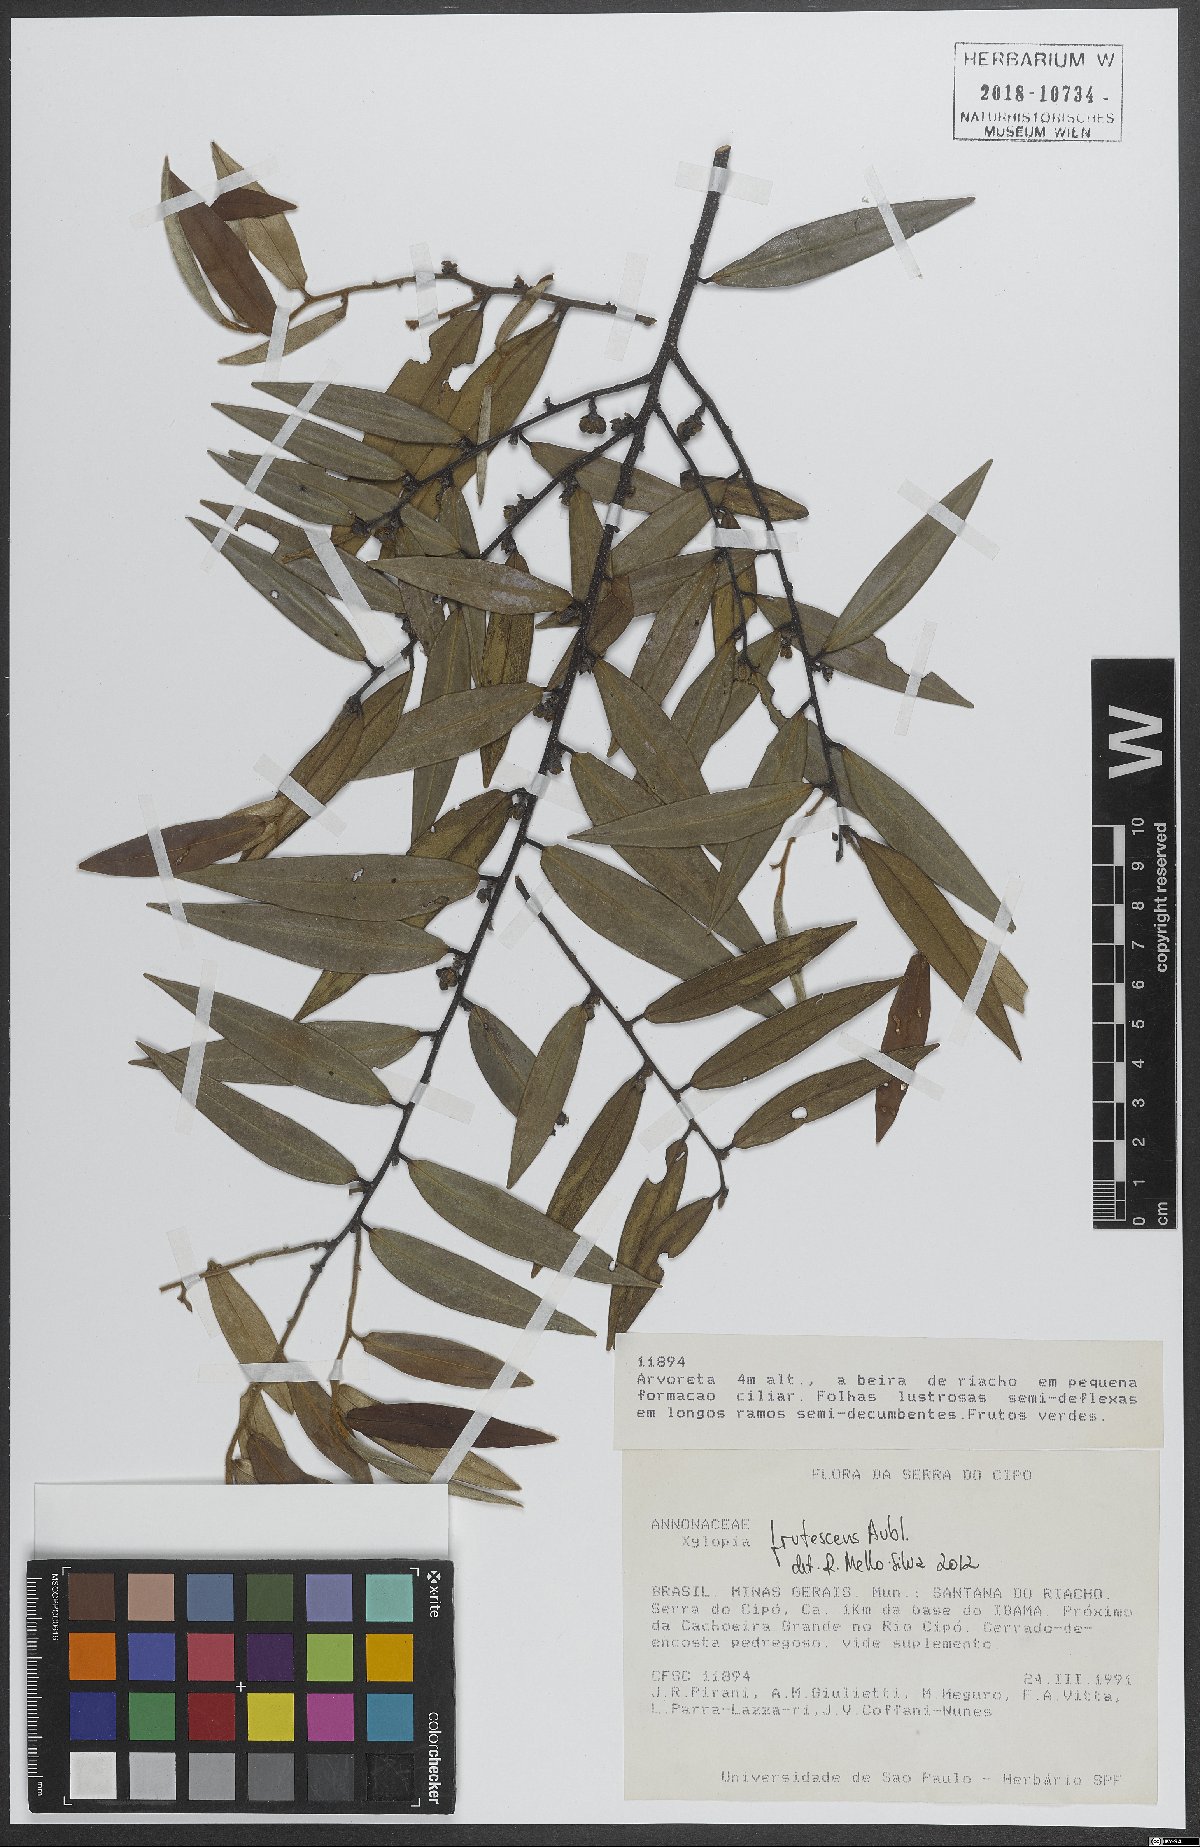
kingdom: Plantae
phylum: Tracheophyta
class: Magnoliopsida
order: Magnoliales
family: Annonaceae
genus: Xylopia
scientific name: Xylopia frutescens
